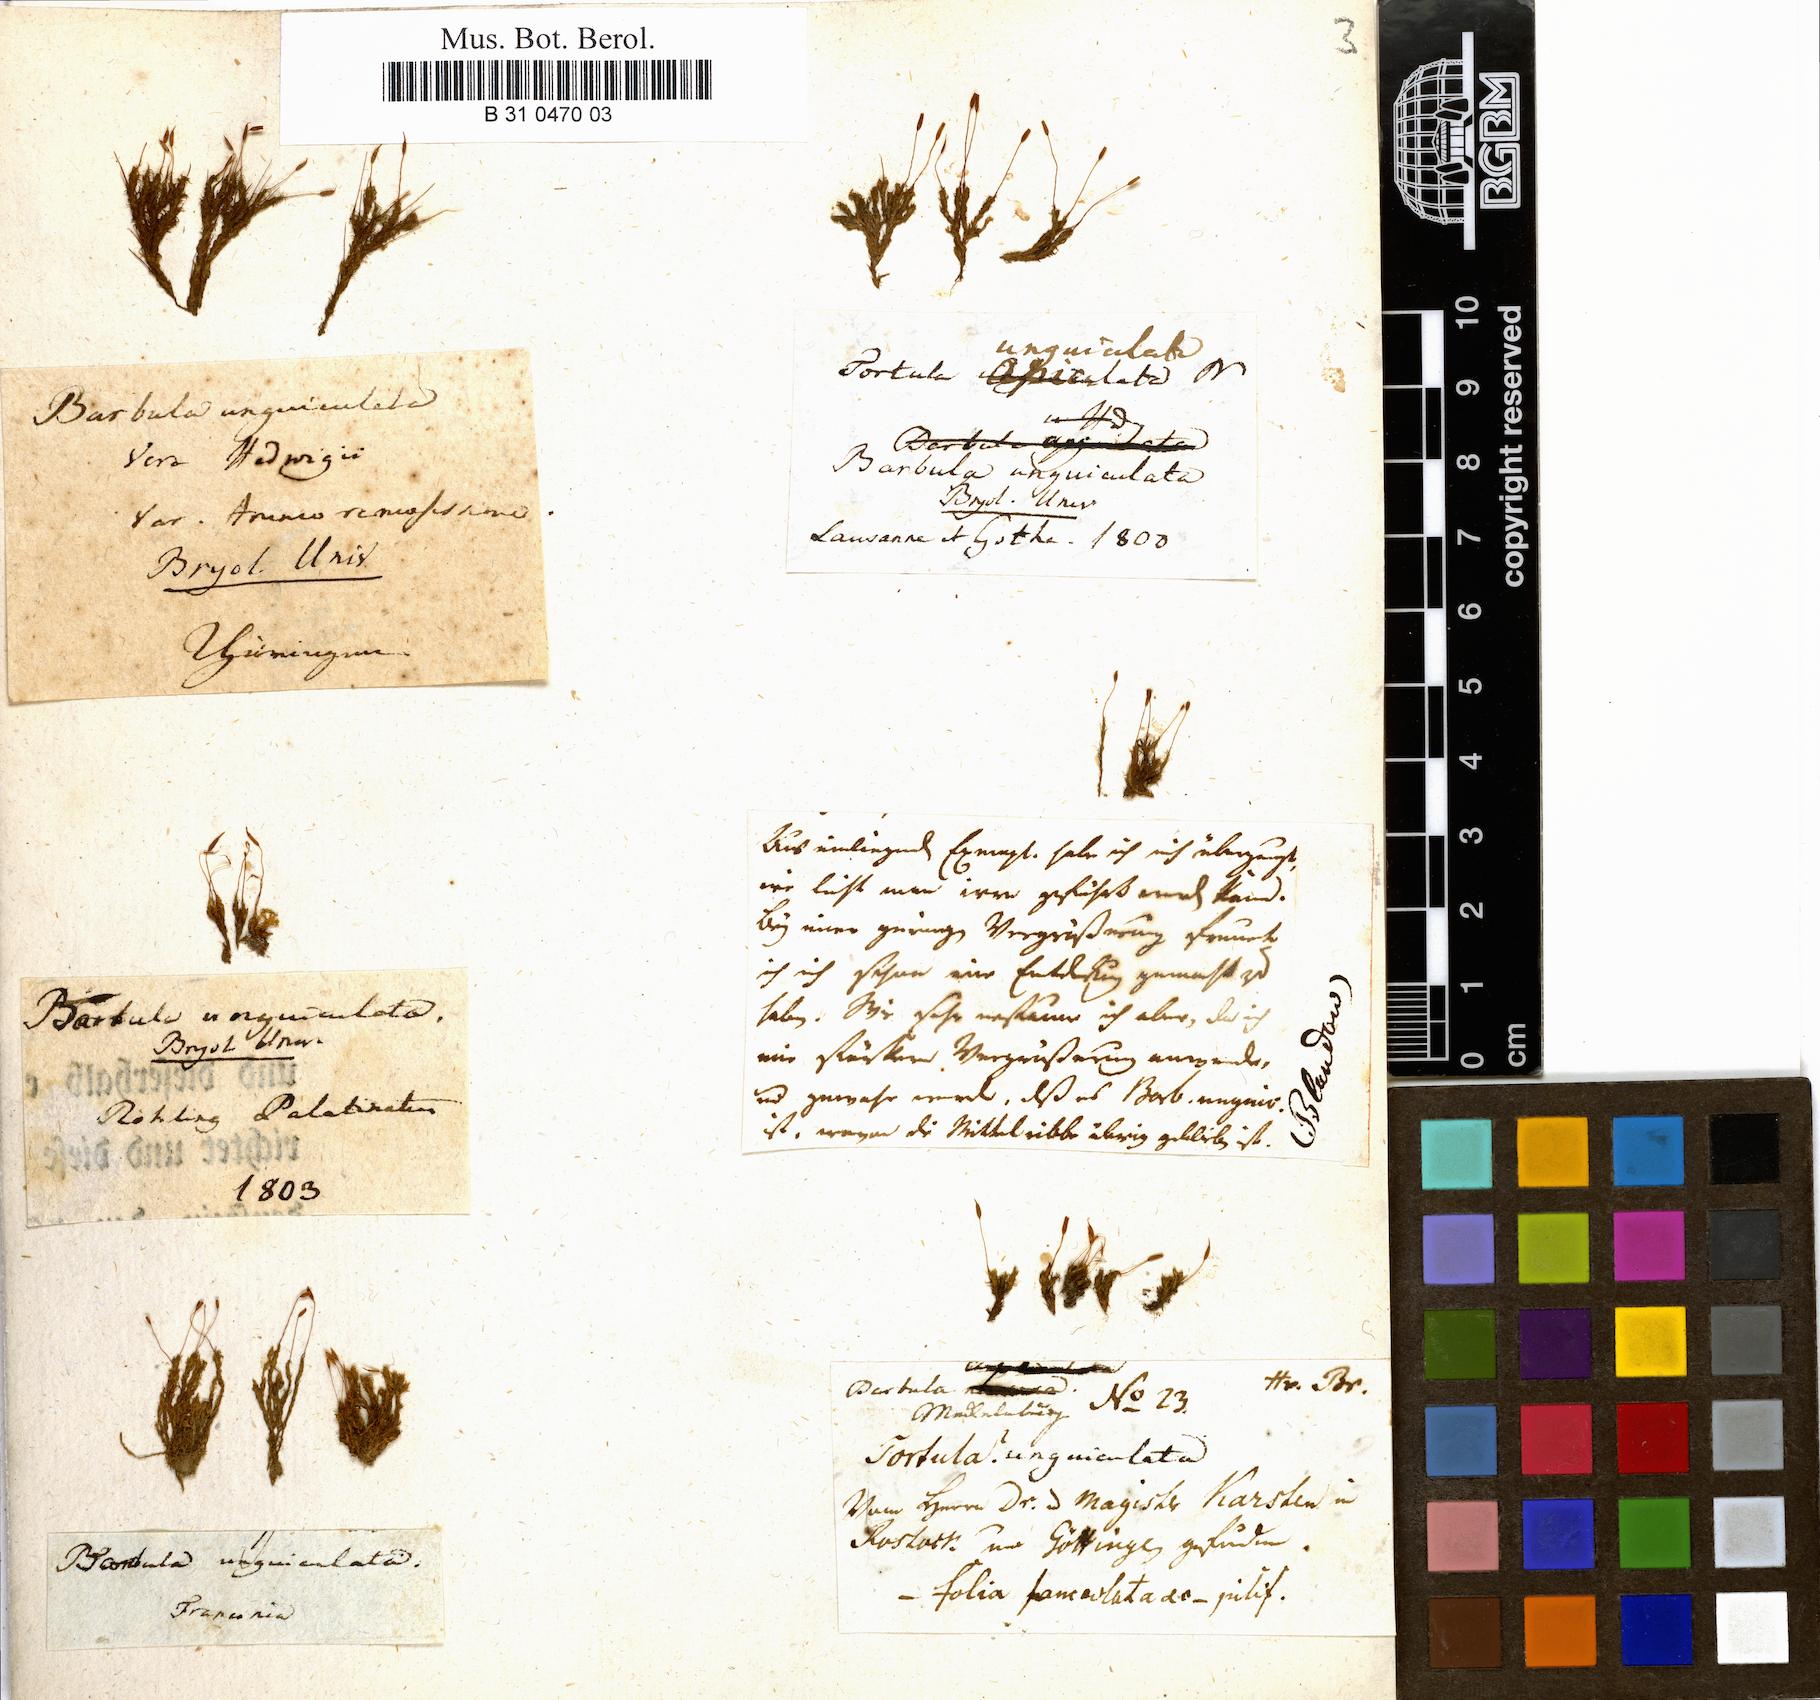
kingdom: Plantae
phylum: Bryophyta
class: Bryopsida
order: Pottiales
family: Pottiaceae
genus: Barbula
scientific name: Barbula unguiculata
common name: Prickly beard moss
